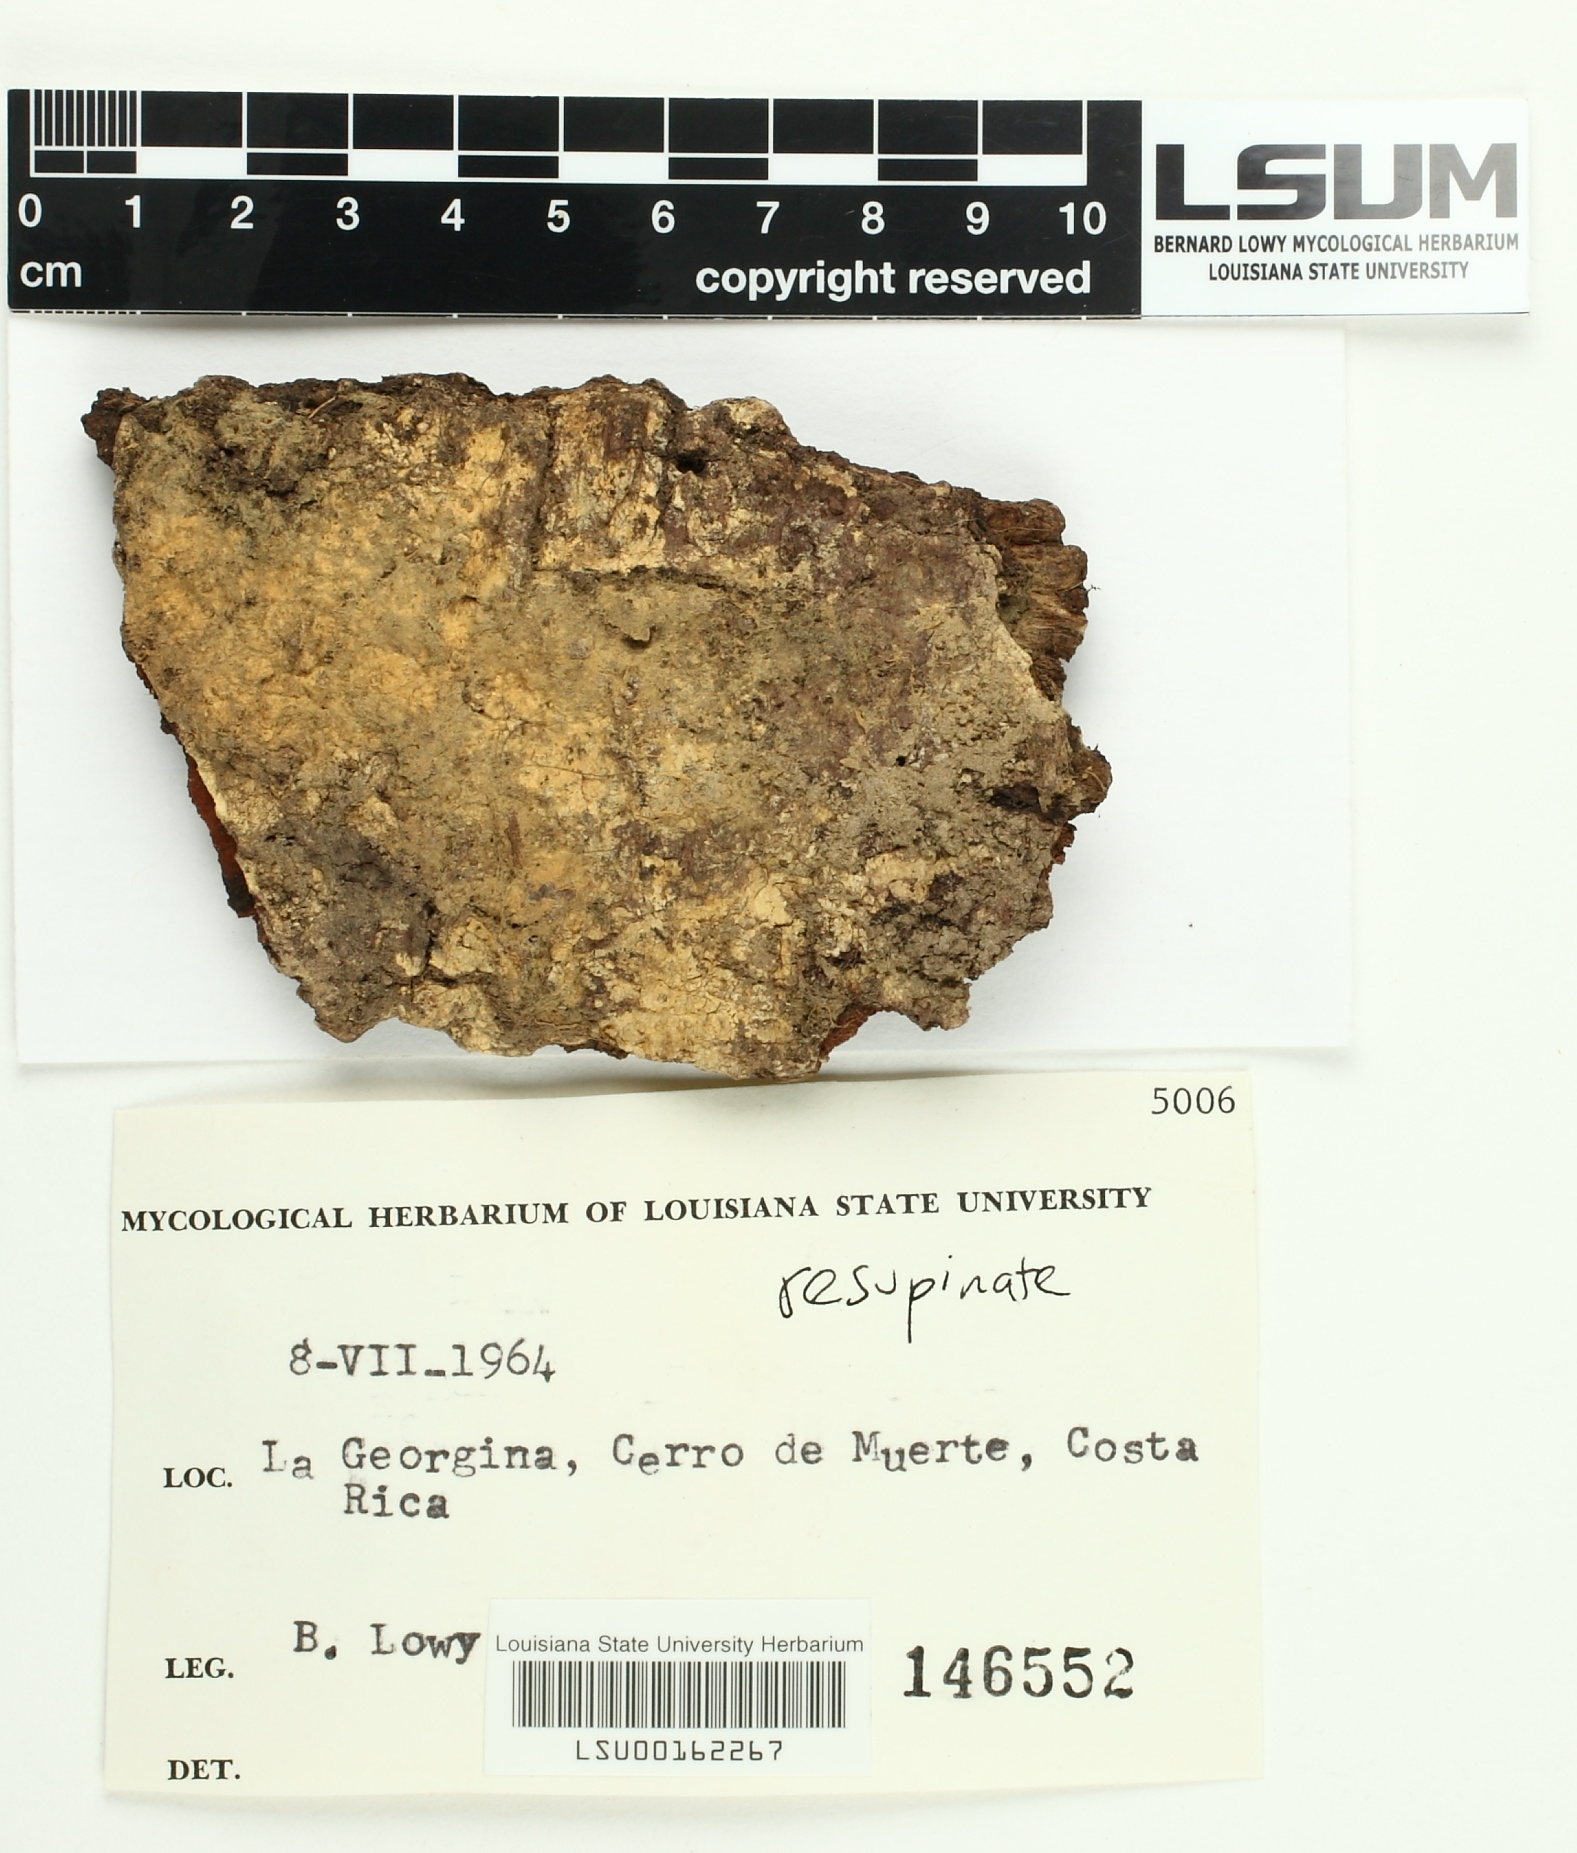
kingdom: Fungi
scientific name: Fungi
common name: Fungi
